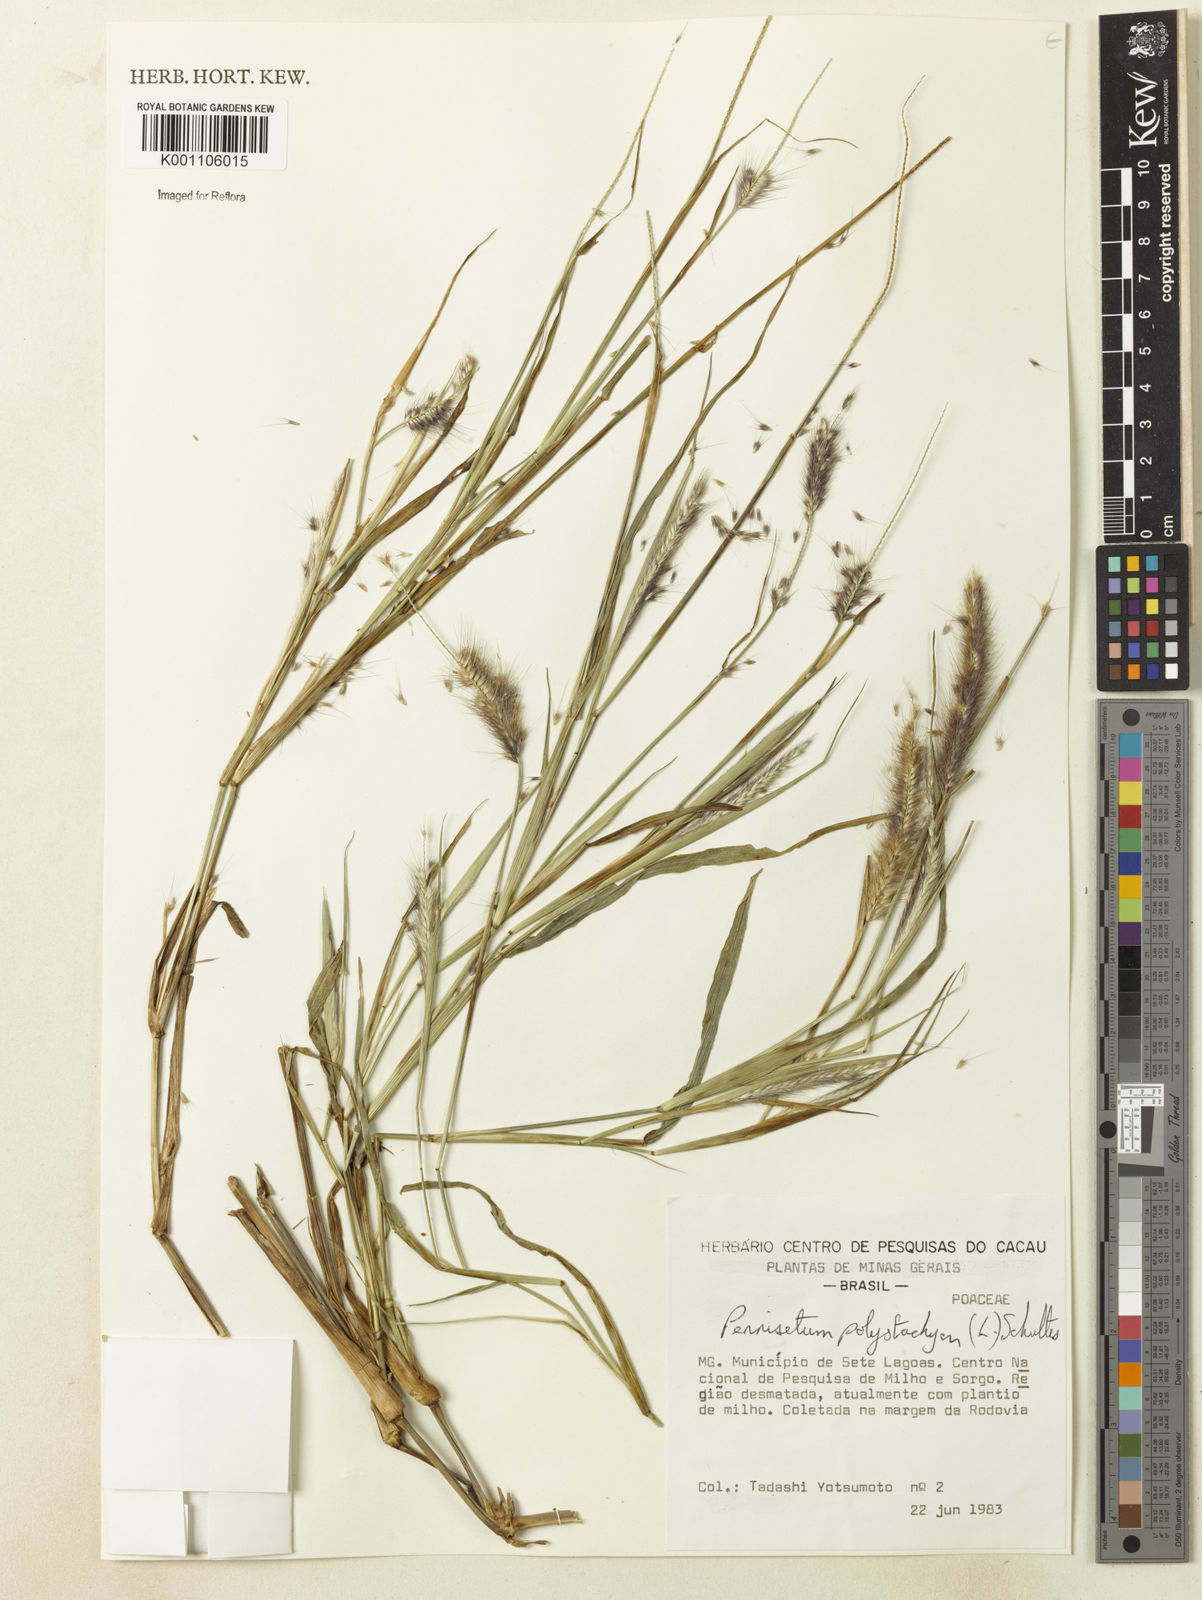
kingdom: Plantae
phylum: Tracheophyta
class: Liliopsida
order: Poales
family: Poaceae
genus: Setaria
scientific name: Setaria parviflora
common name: Knotroot bristle-grass
